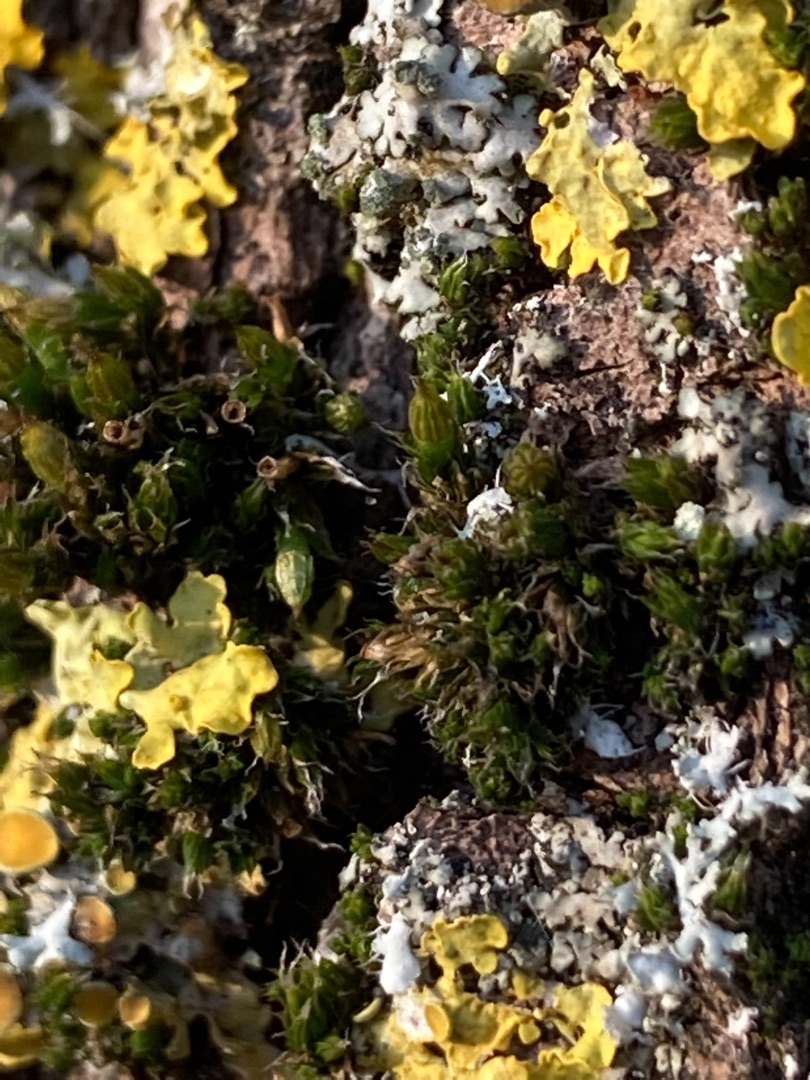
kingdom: Plantae
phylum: Bryophyta
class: Bryopsida
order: Orthotrichales
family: Orthotrichaceae
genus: Orthotrichum
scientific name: Orthotrichum diaphanum
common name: Hårspidset furehætte
